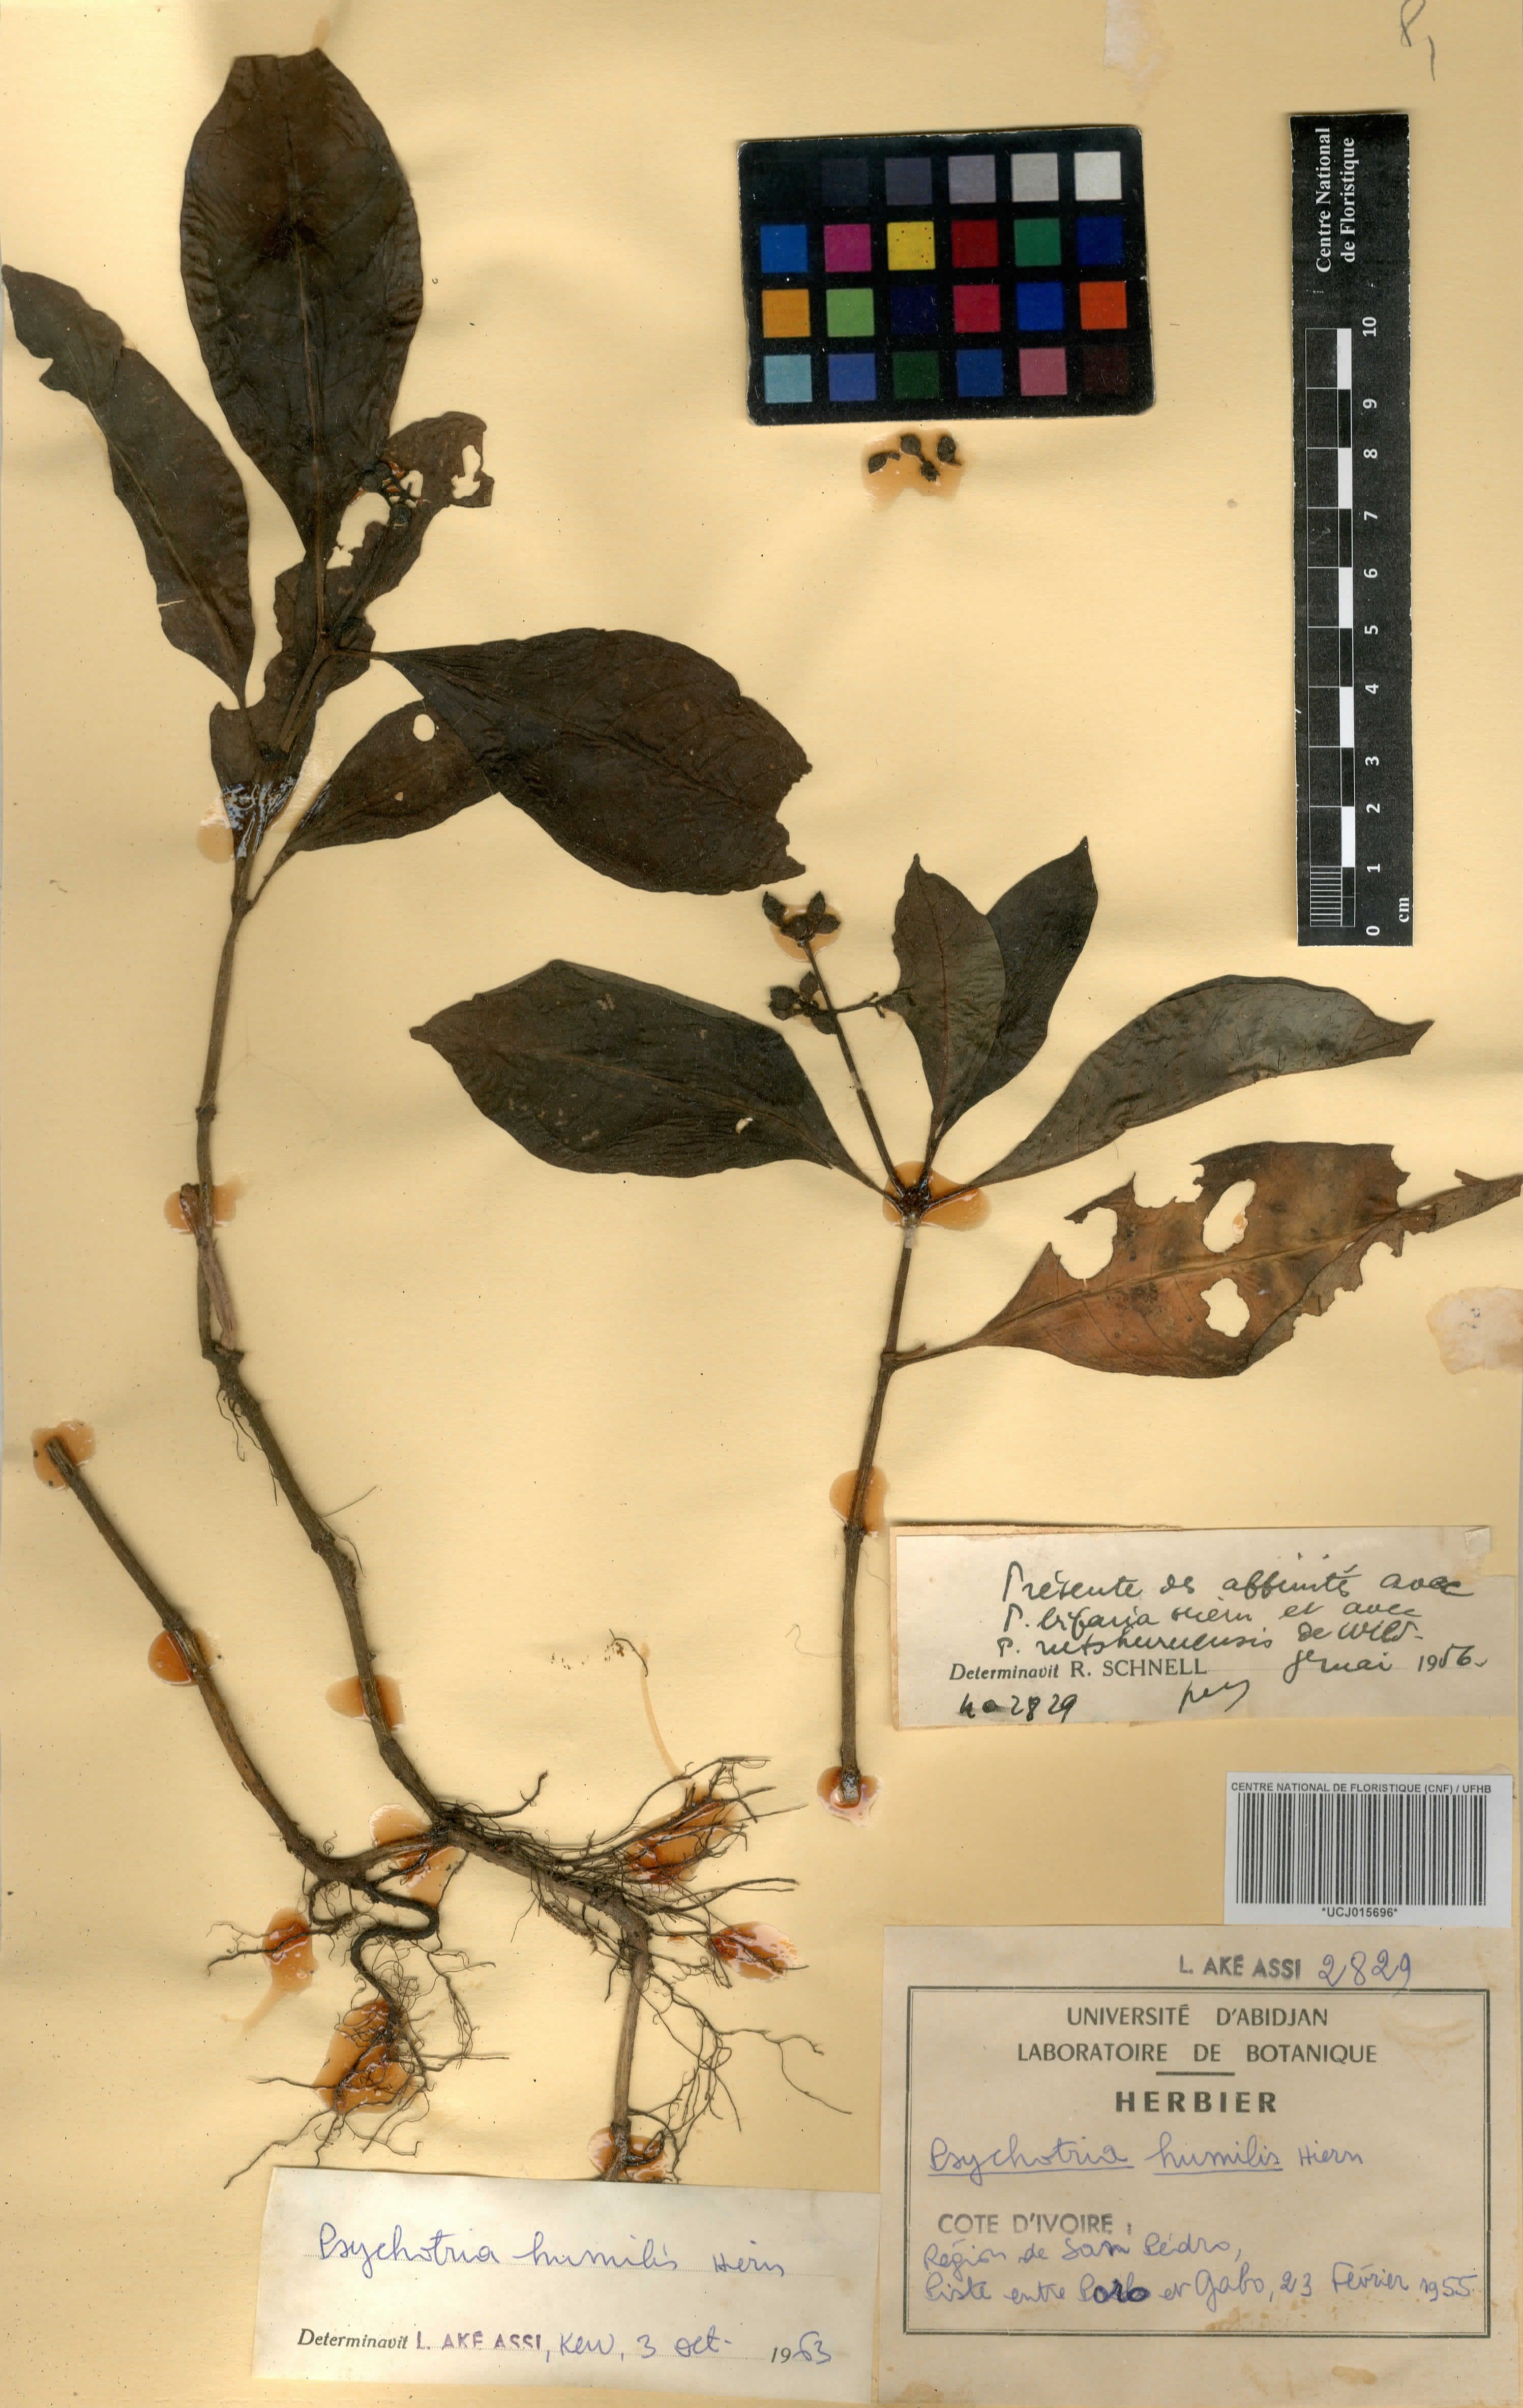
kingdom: Plantae
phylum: Tracheophyta
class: Magnoliopsida
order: Gentianales
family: Rubiaceae
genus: Psychotria
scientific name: Psychotria humilis
